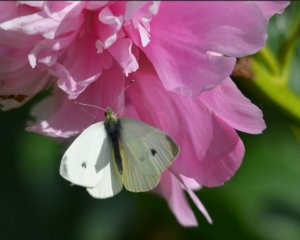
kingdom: Animalia
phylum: Arthropoda
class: Insecta
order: Lepidoptera
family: Pieridae
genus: Pieris
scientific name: Pieris rapae
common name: Cabbage White
